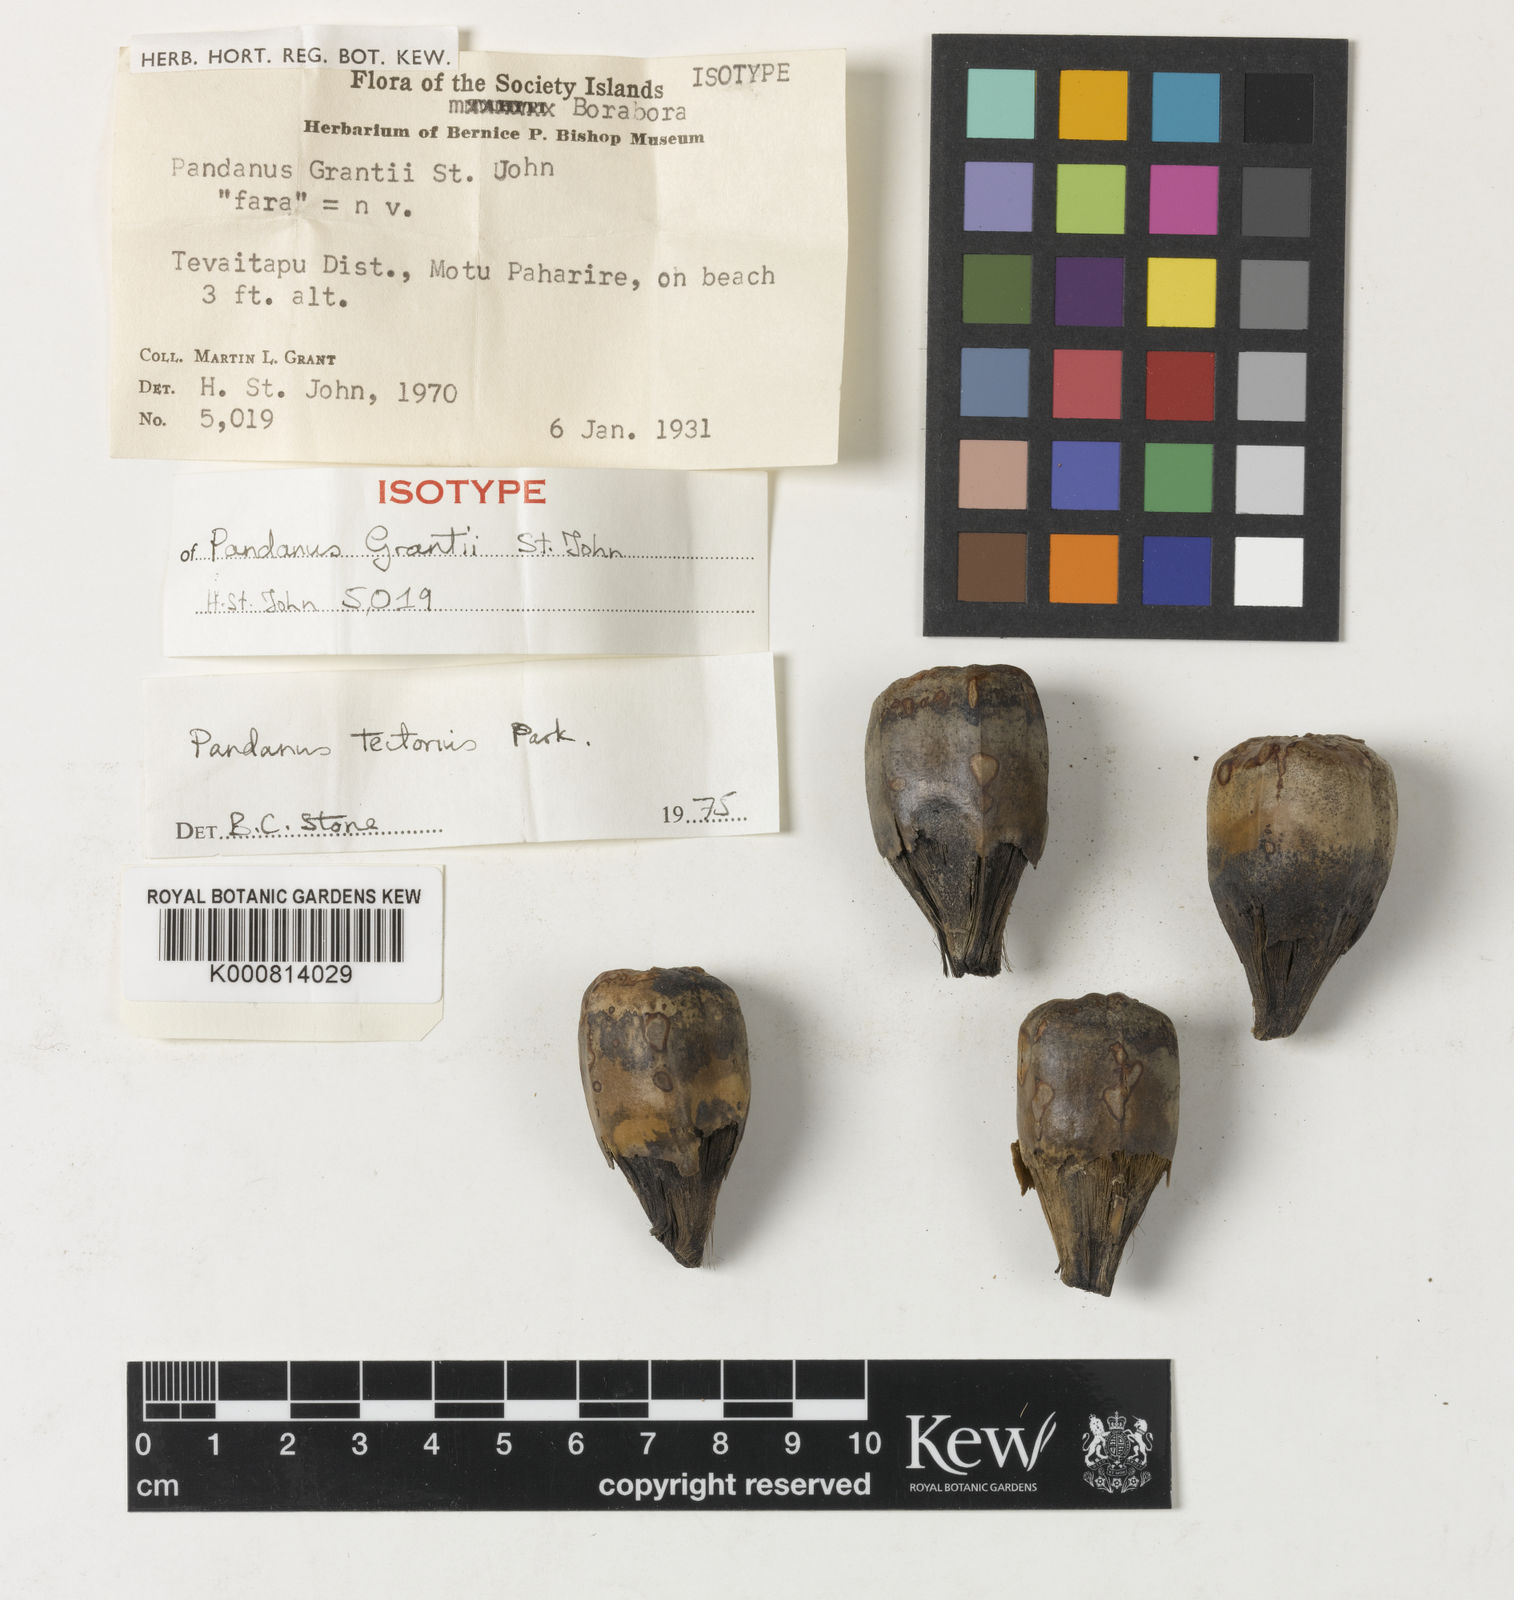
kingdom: Plantae
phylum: Tracheophyta
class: Liliopsida
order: Pandanales
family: Pandanaceae
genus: Pandanus
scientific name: Pandanus
